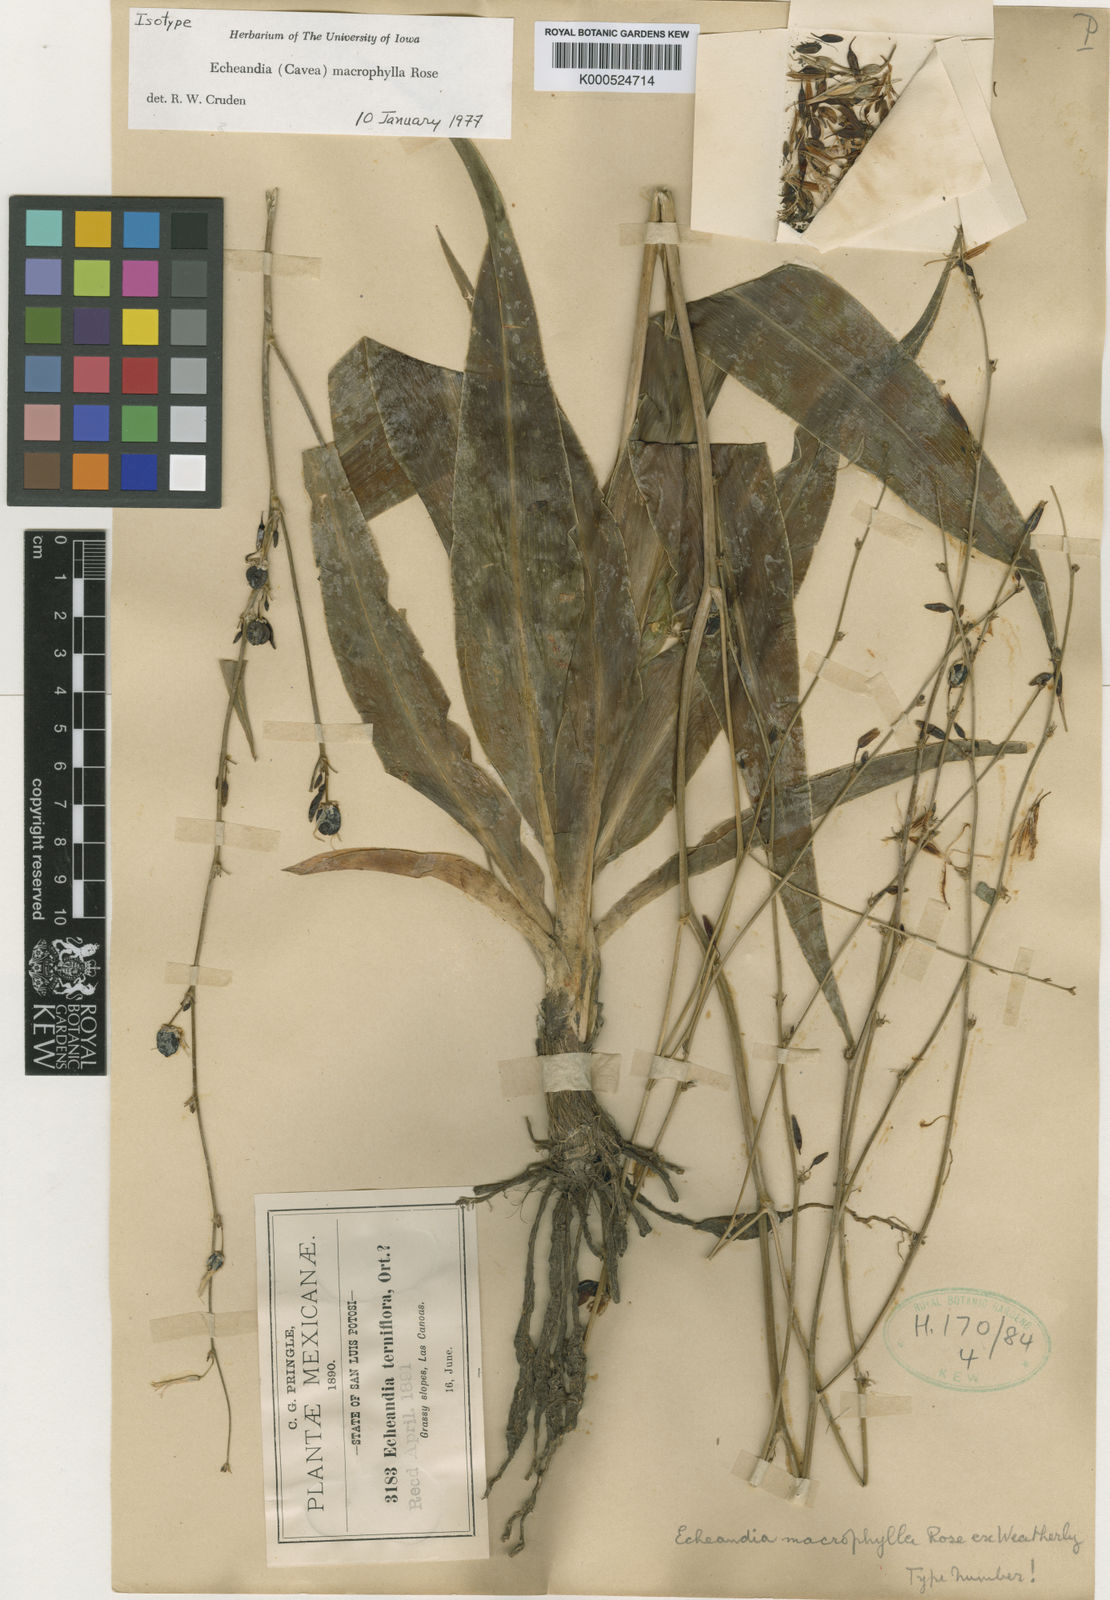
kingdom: Plantae
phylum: Tracheophyta
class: Liliopsida
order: Asparagales
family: Asparagaceae
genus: Echeandia
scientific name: Echeandia macrophylla
